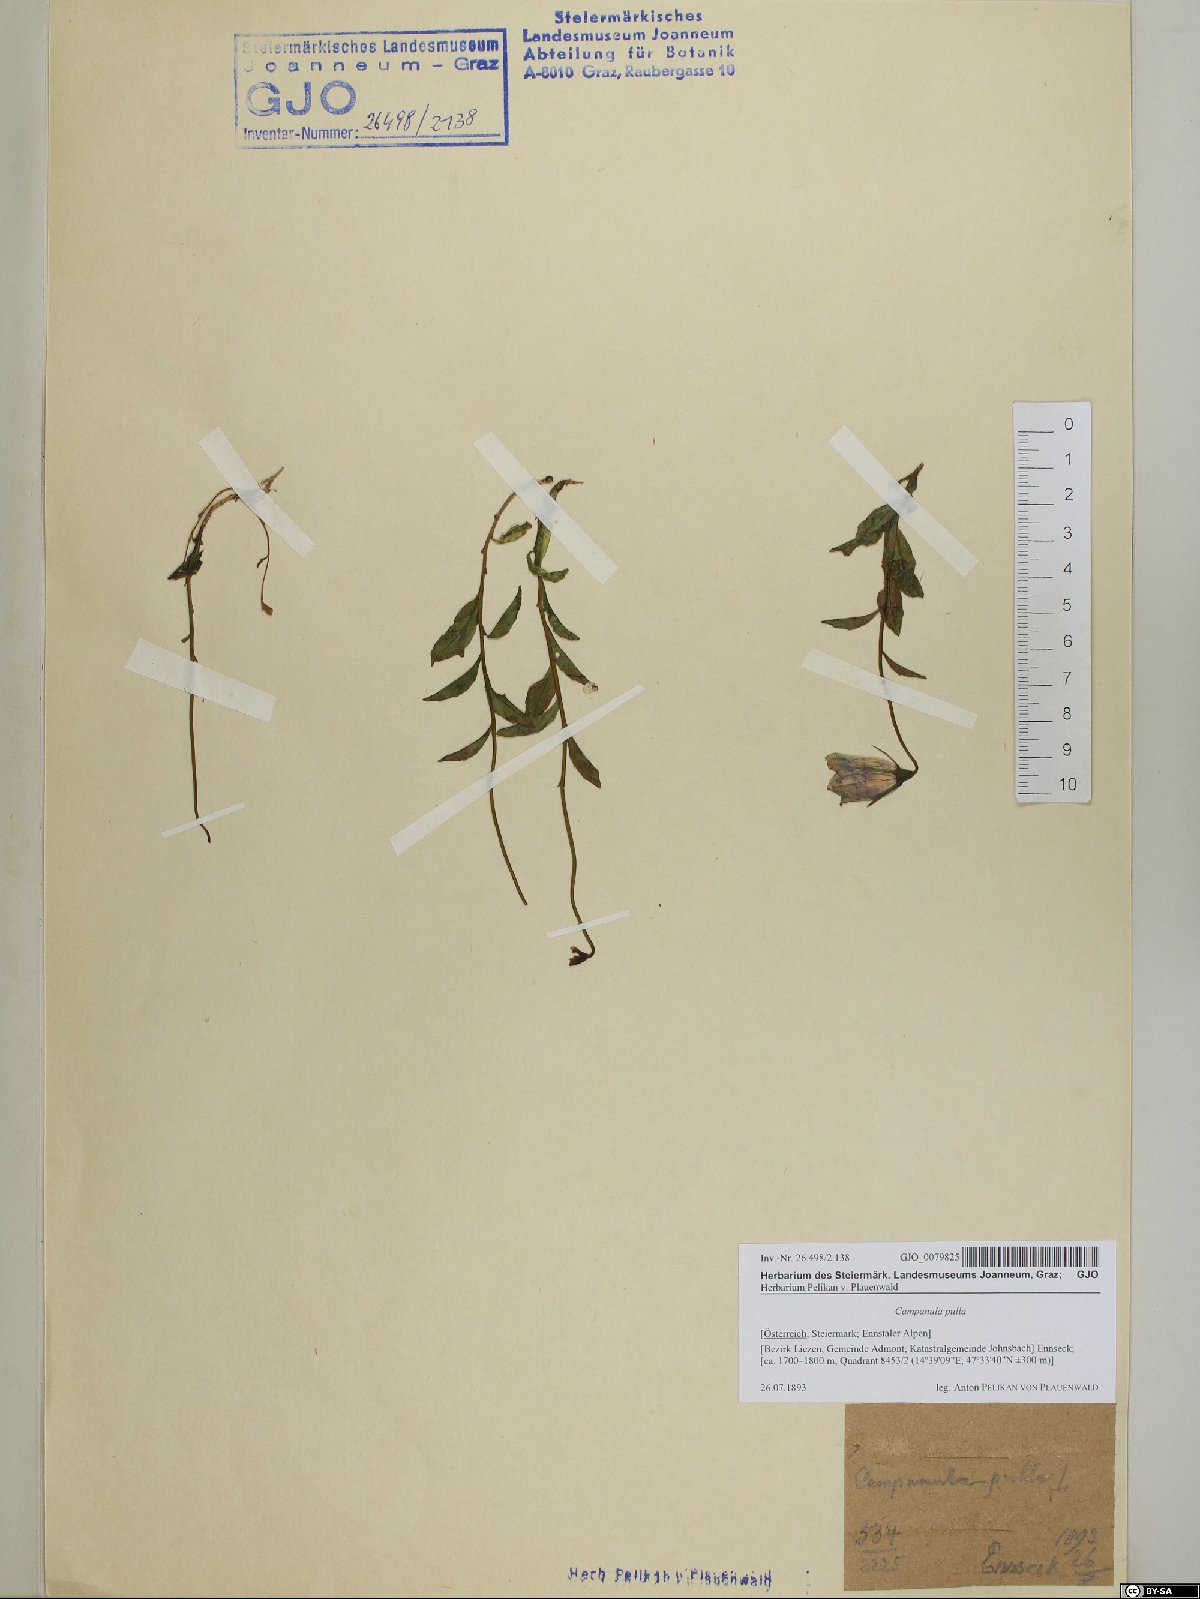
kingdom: Plantae
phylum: Tracheophyta
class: Magnoliopsida
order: Asterales
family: Campanulaceae
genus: Campanula
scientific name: Campanula pulla
